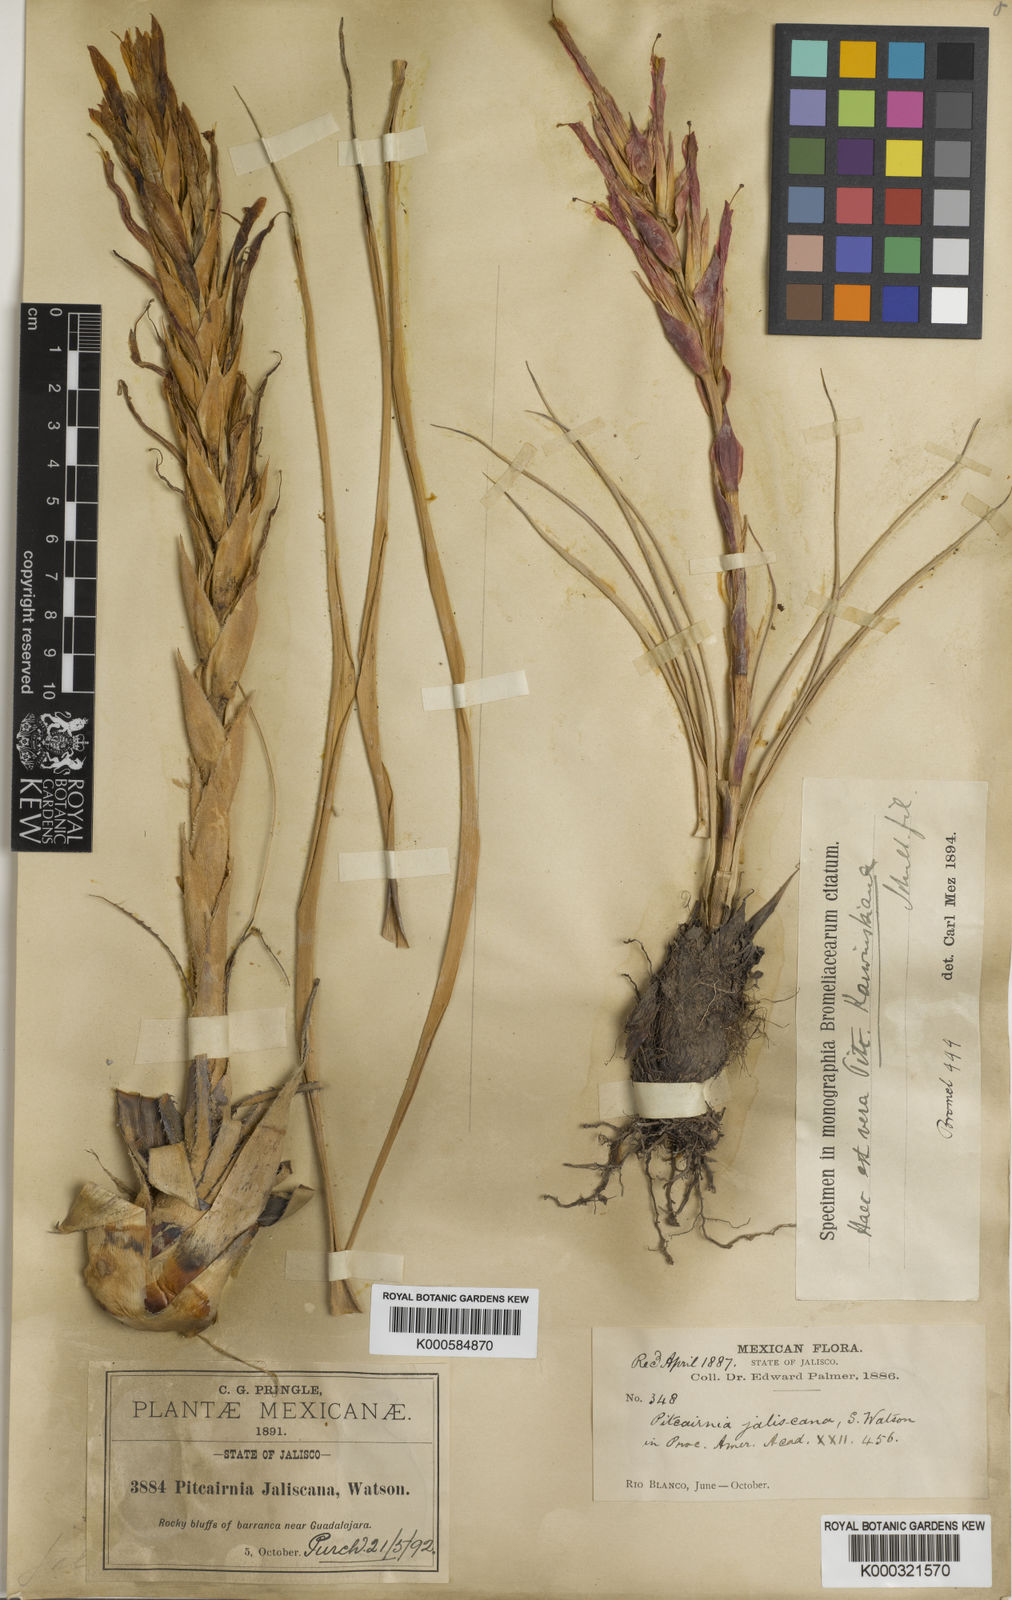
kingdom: Plantae
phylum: Tracheophyta
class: Liliopsida
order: Poales
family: Bromeliaceae
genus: Pitcairnia
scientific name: Pitcairnia karwinskyana
